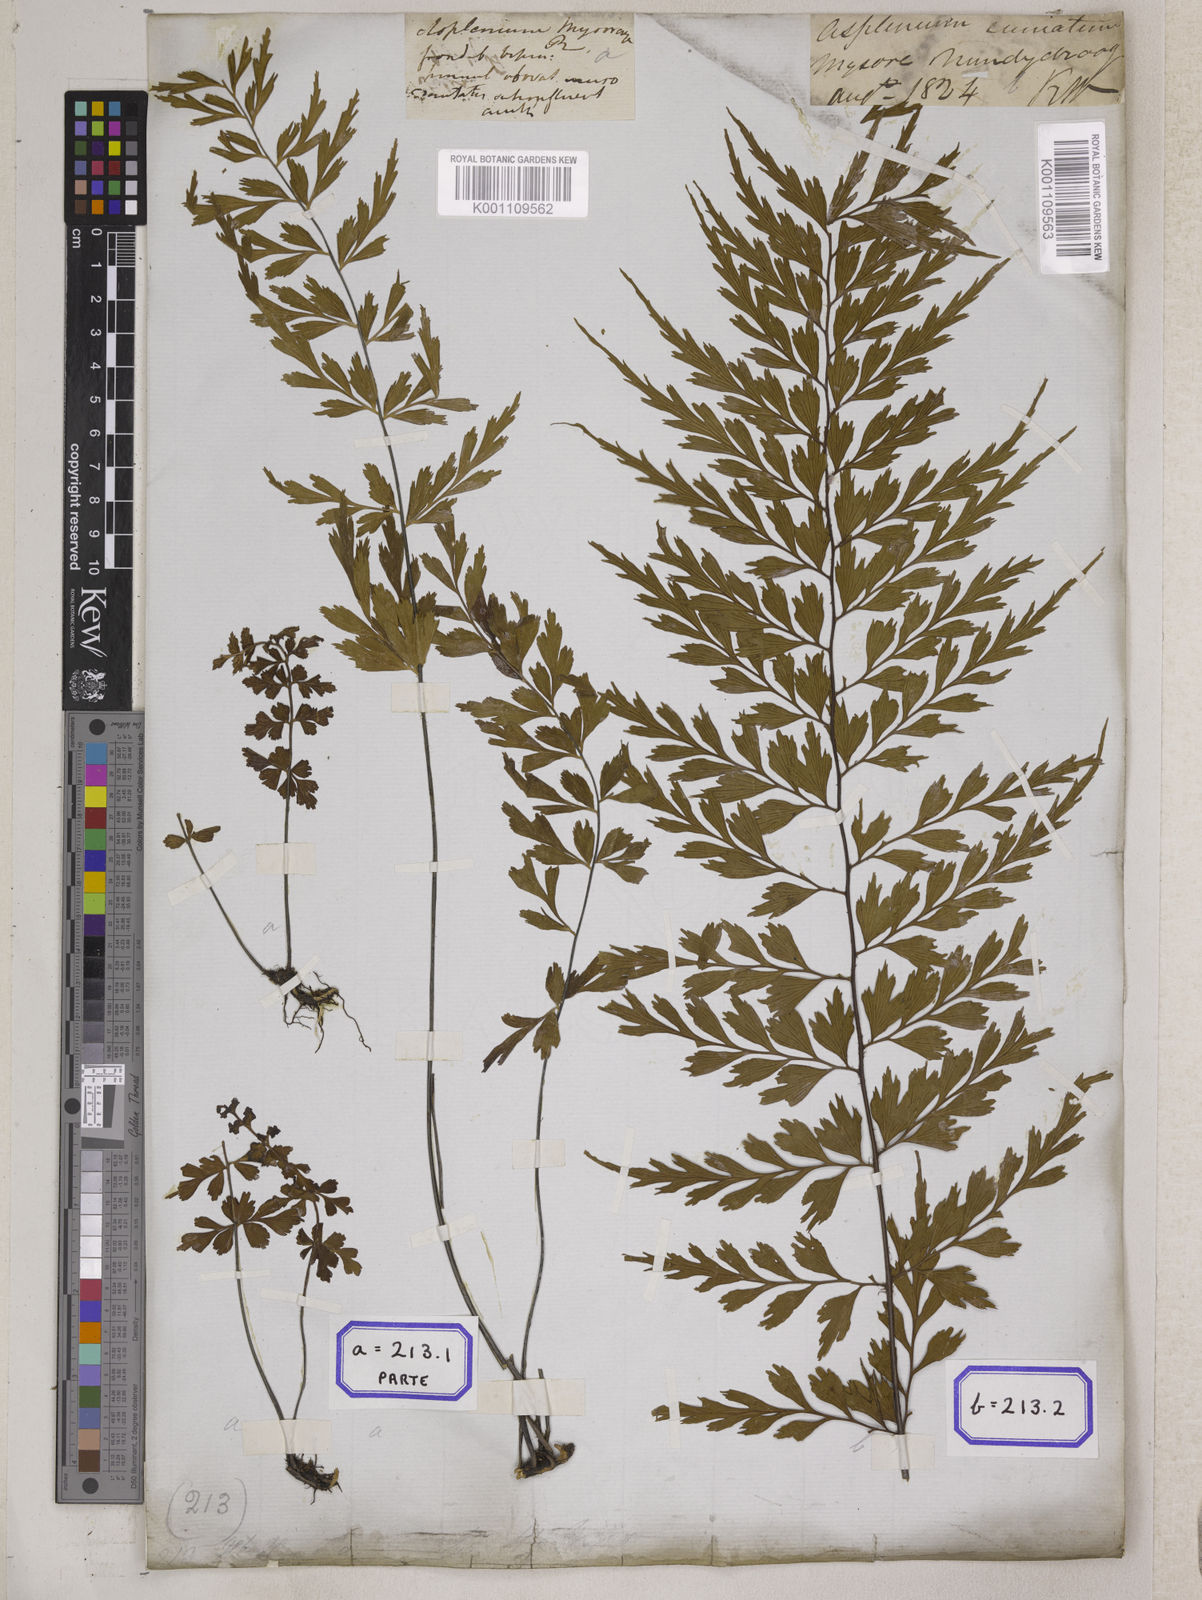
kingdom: Plantae
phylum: Tracheophyta
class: Polypodiopsida
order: Polypodiales
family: Aspleniaceae
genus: Asplenium
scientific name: Asplenium mysorense
